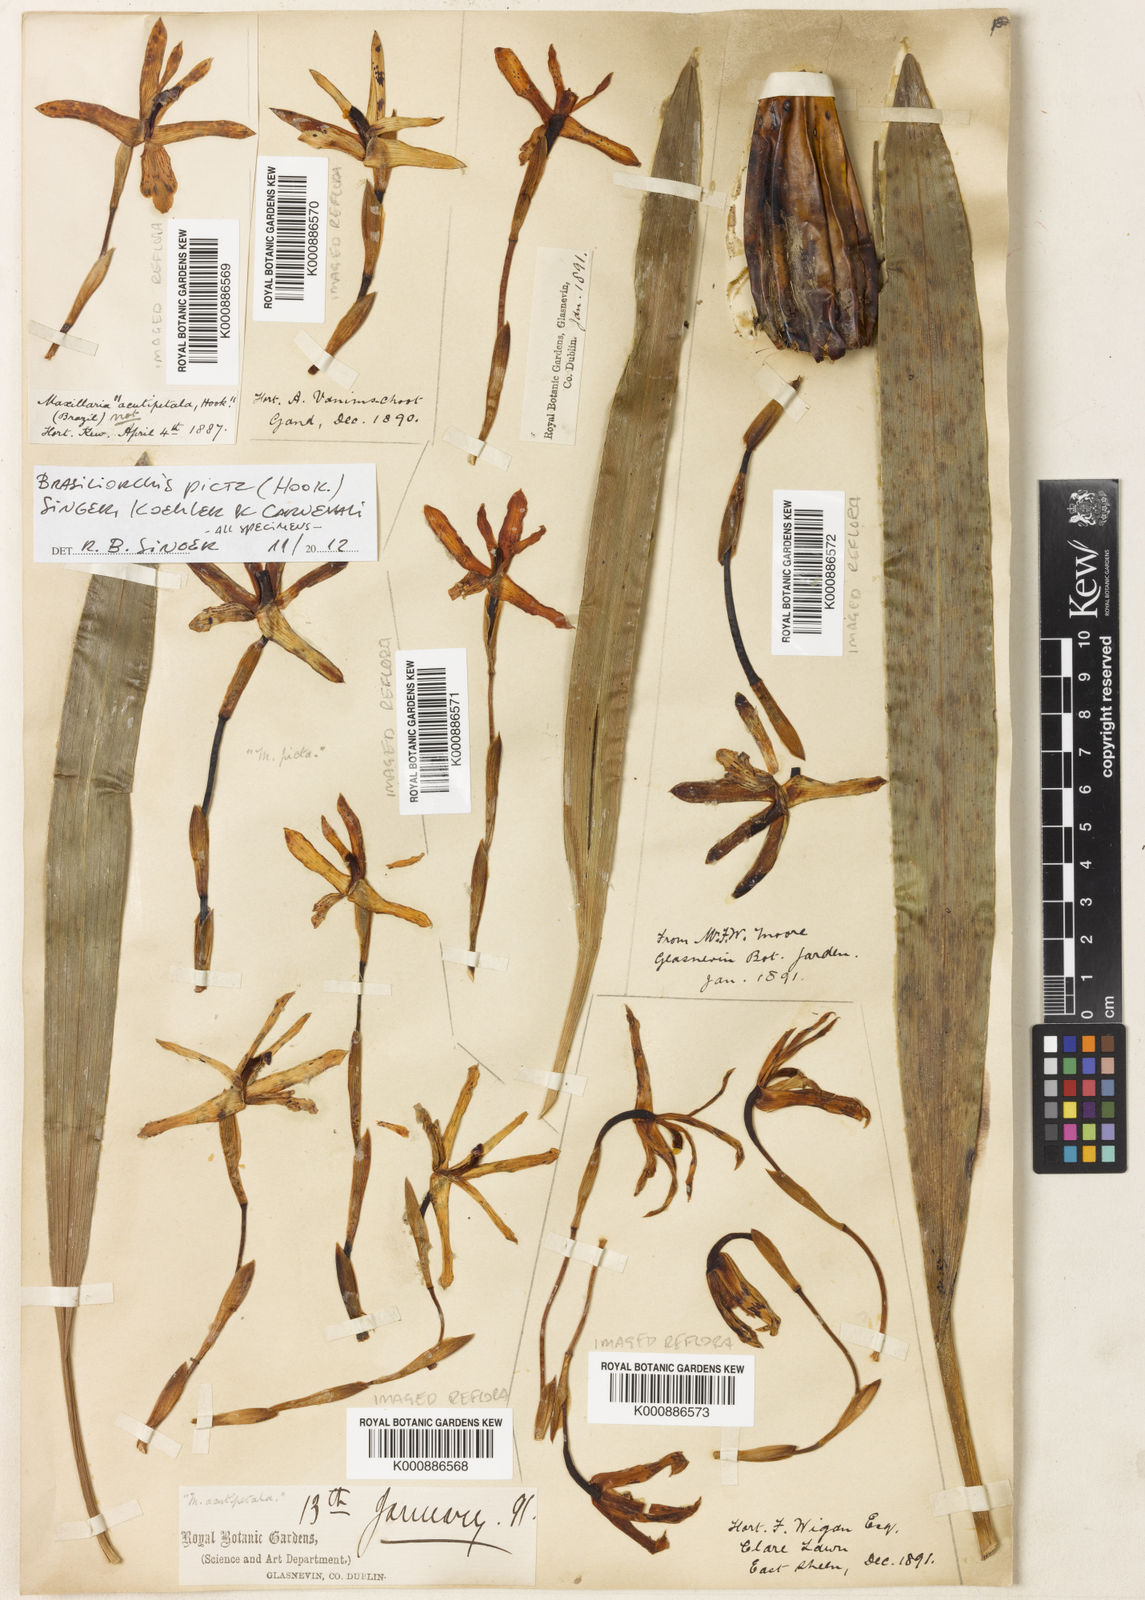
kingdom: Plantae
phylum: Tracheophyta
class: Liliopsida
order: Asparagales
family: Orchidaceae
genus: Maxillaria
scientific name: Maxillaria picta
